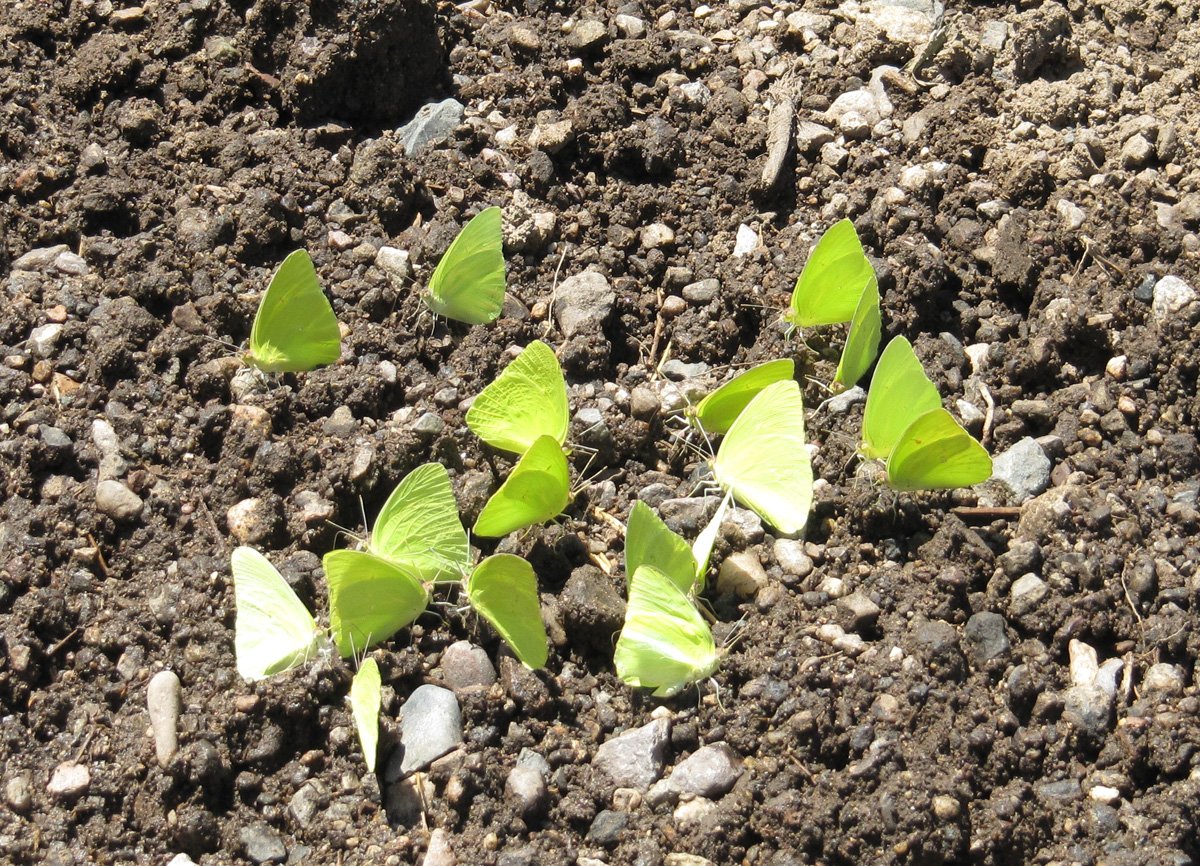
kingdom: Animalia
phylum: Arthropoda
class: Insecta
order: Lepidoptera
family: Pieridae
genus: Phoebis
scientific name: Phoebis sennae
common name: Cloudless Sulphur
